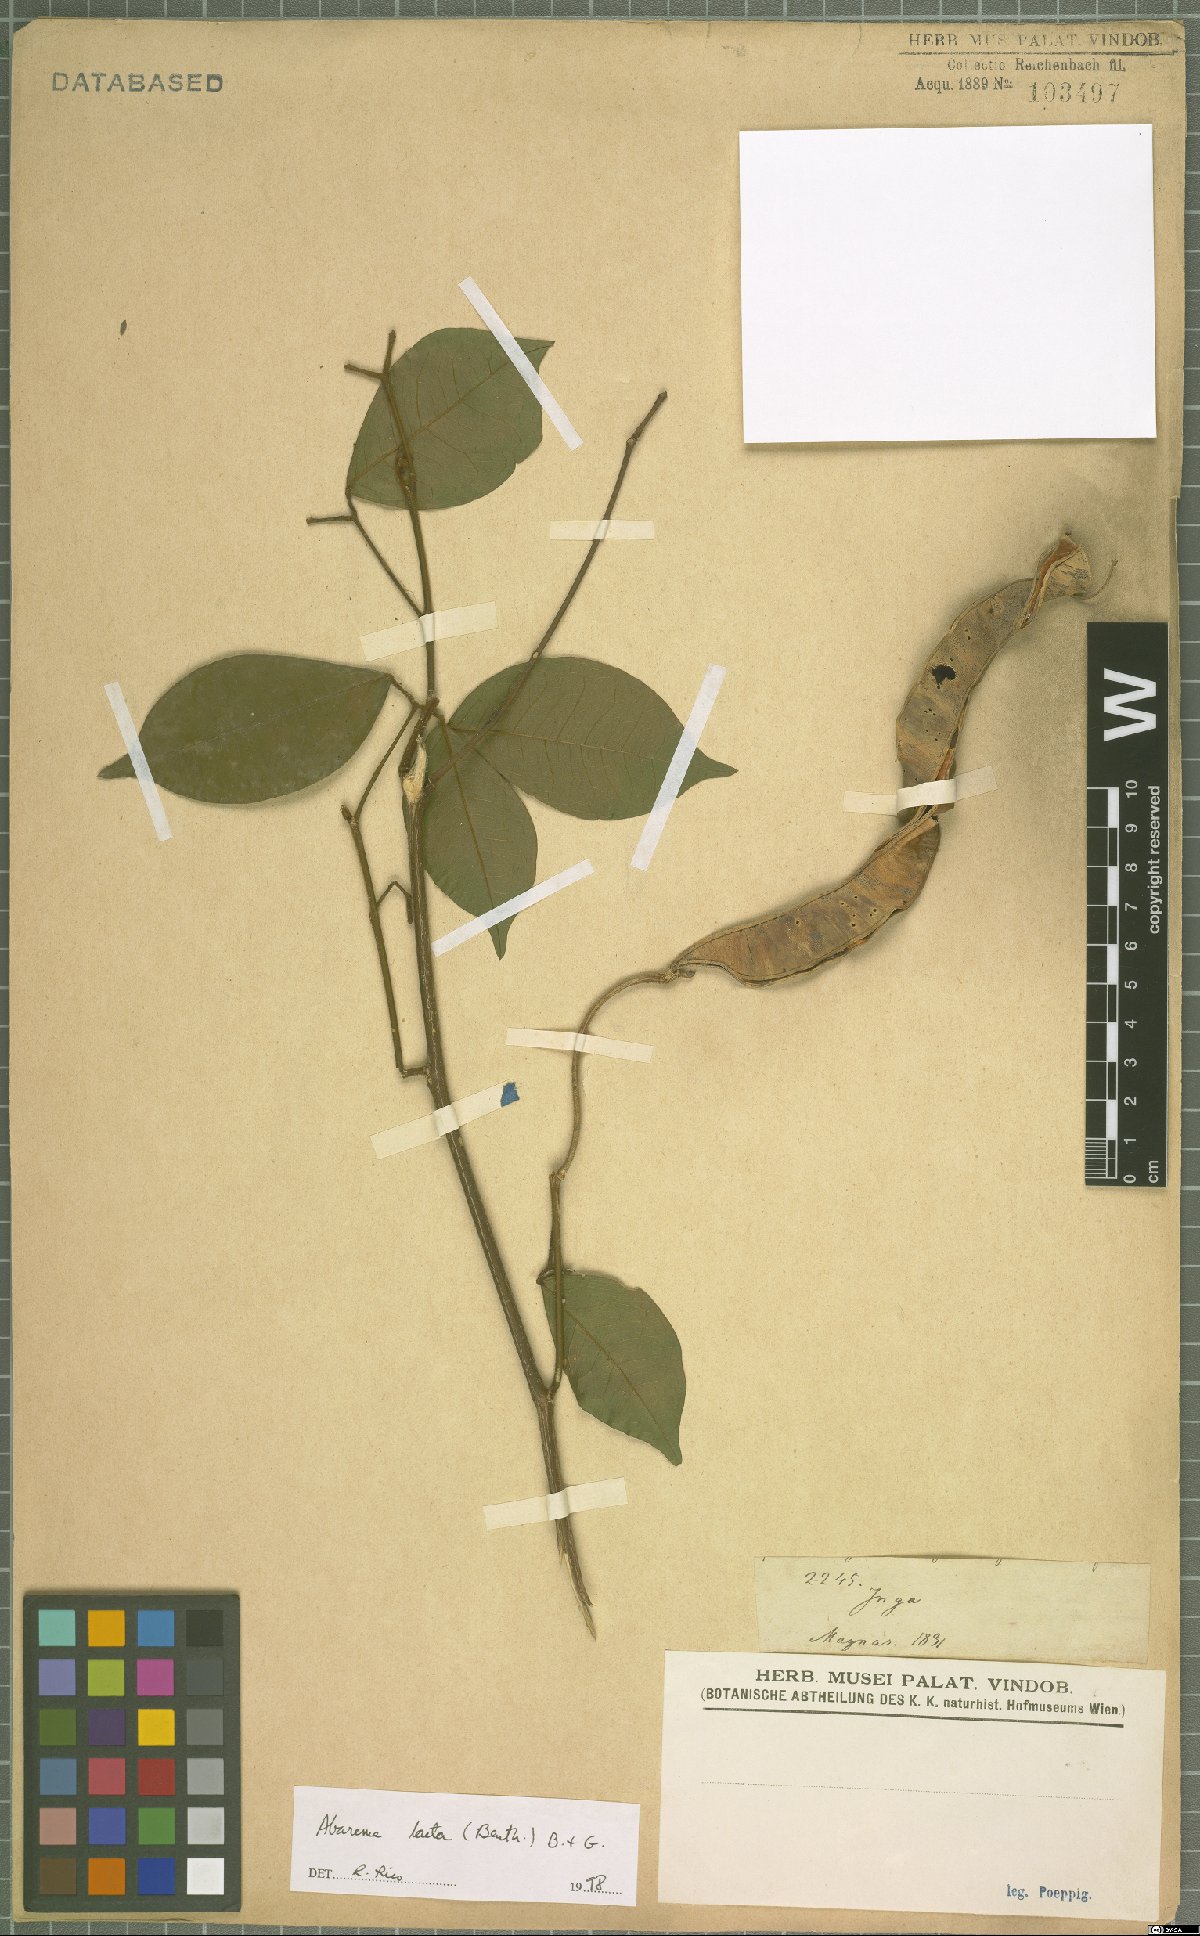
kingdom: Plantae
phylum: Tracheophyta
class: Magnoliopsida
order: Fabales
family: Fabaceae
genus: Jupunba
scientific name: Jupunba laeta
